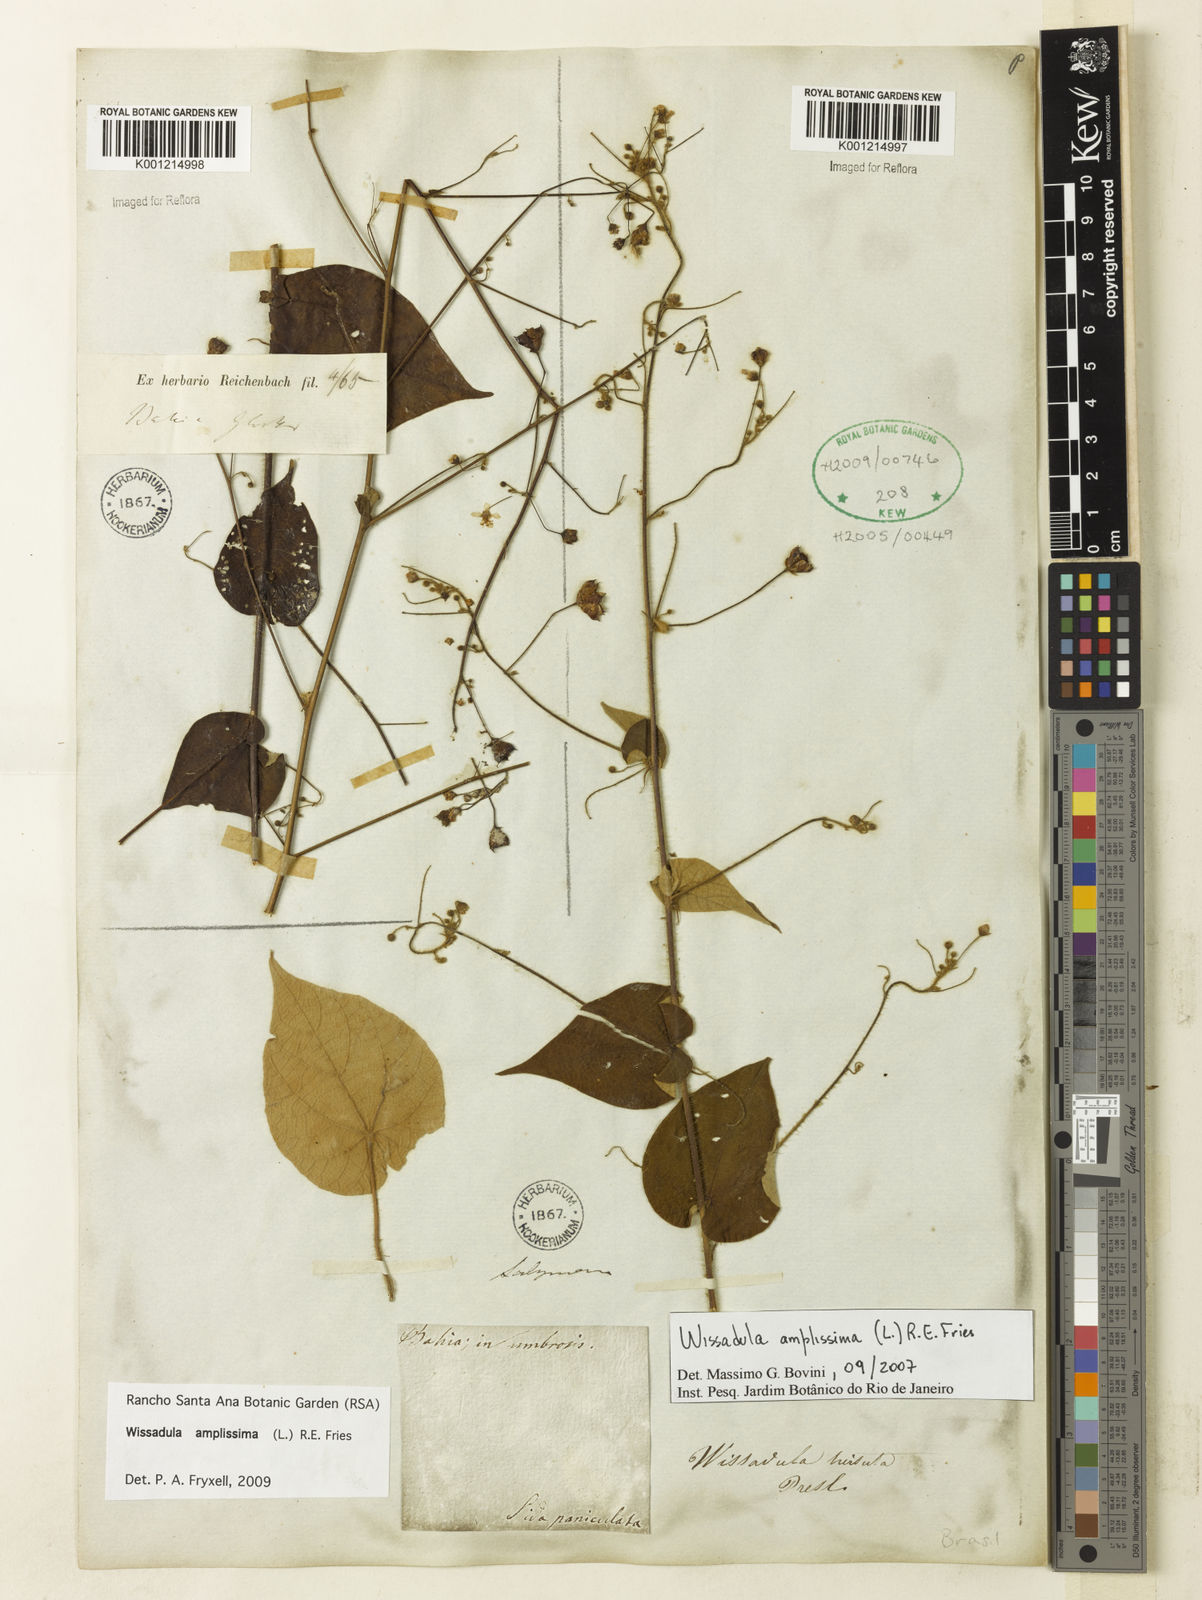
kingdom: Plantae
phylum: Tracheophyta
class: Magnoliopsida
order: Malvales
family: Malvaceae
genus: Wissadula
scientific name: Wissadula amplissima
